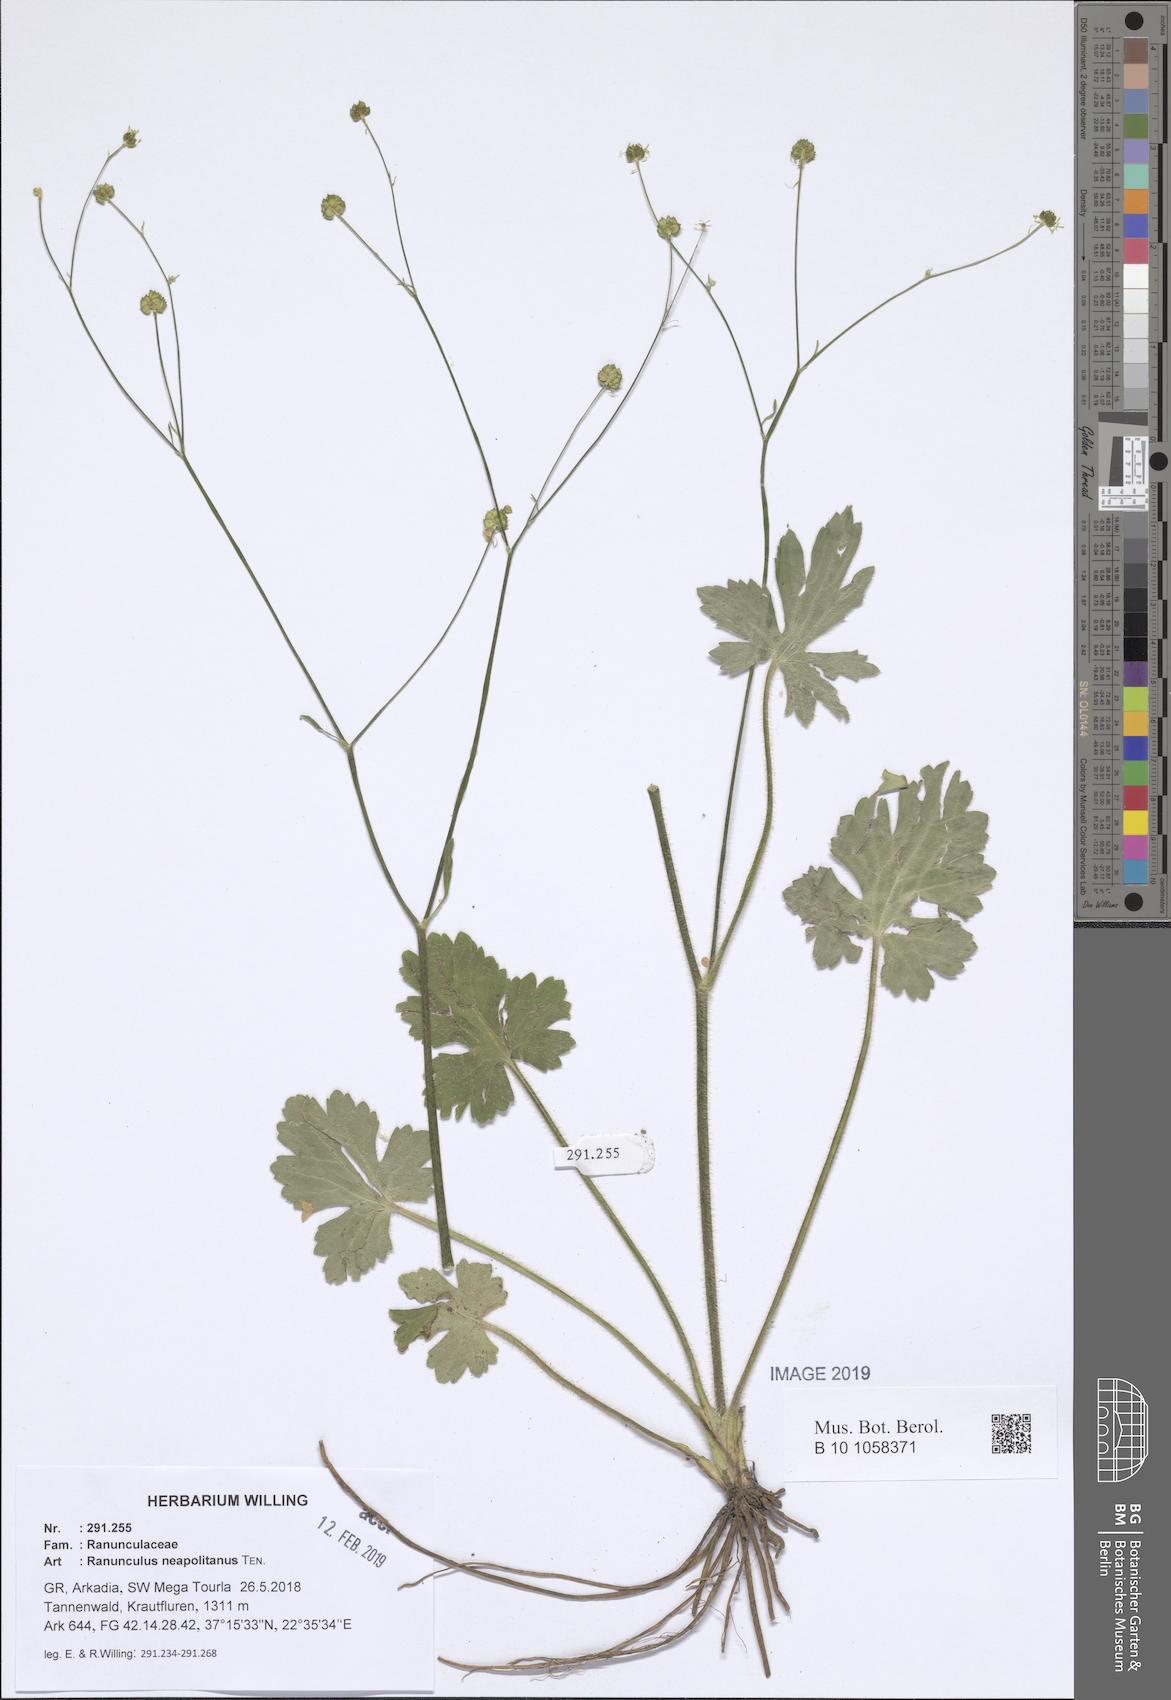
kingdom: Plantae
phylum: Tracheophyta
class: Magnoliopsida
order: Ranunculales
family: Ranunculaceae
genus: Ranunculus
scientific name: Ranunculus neapolitanus
